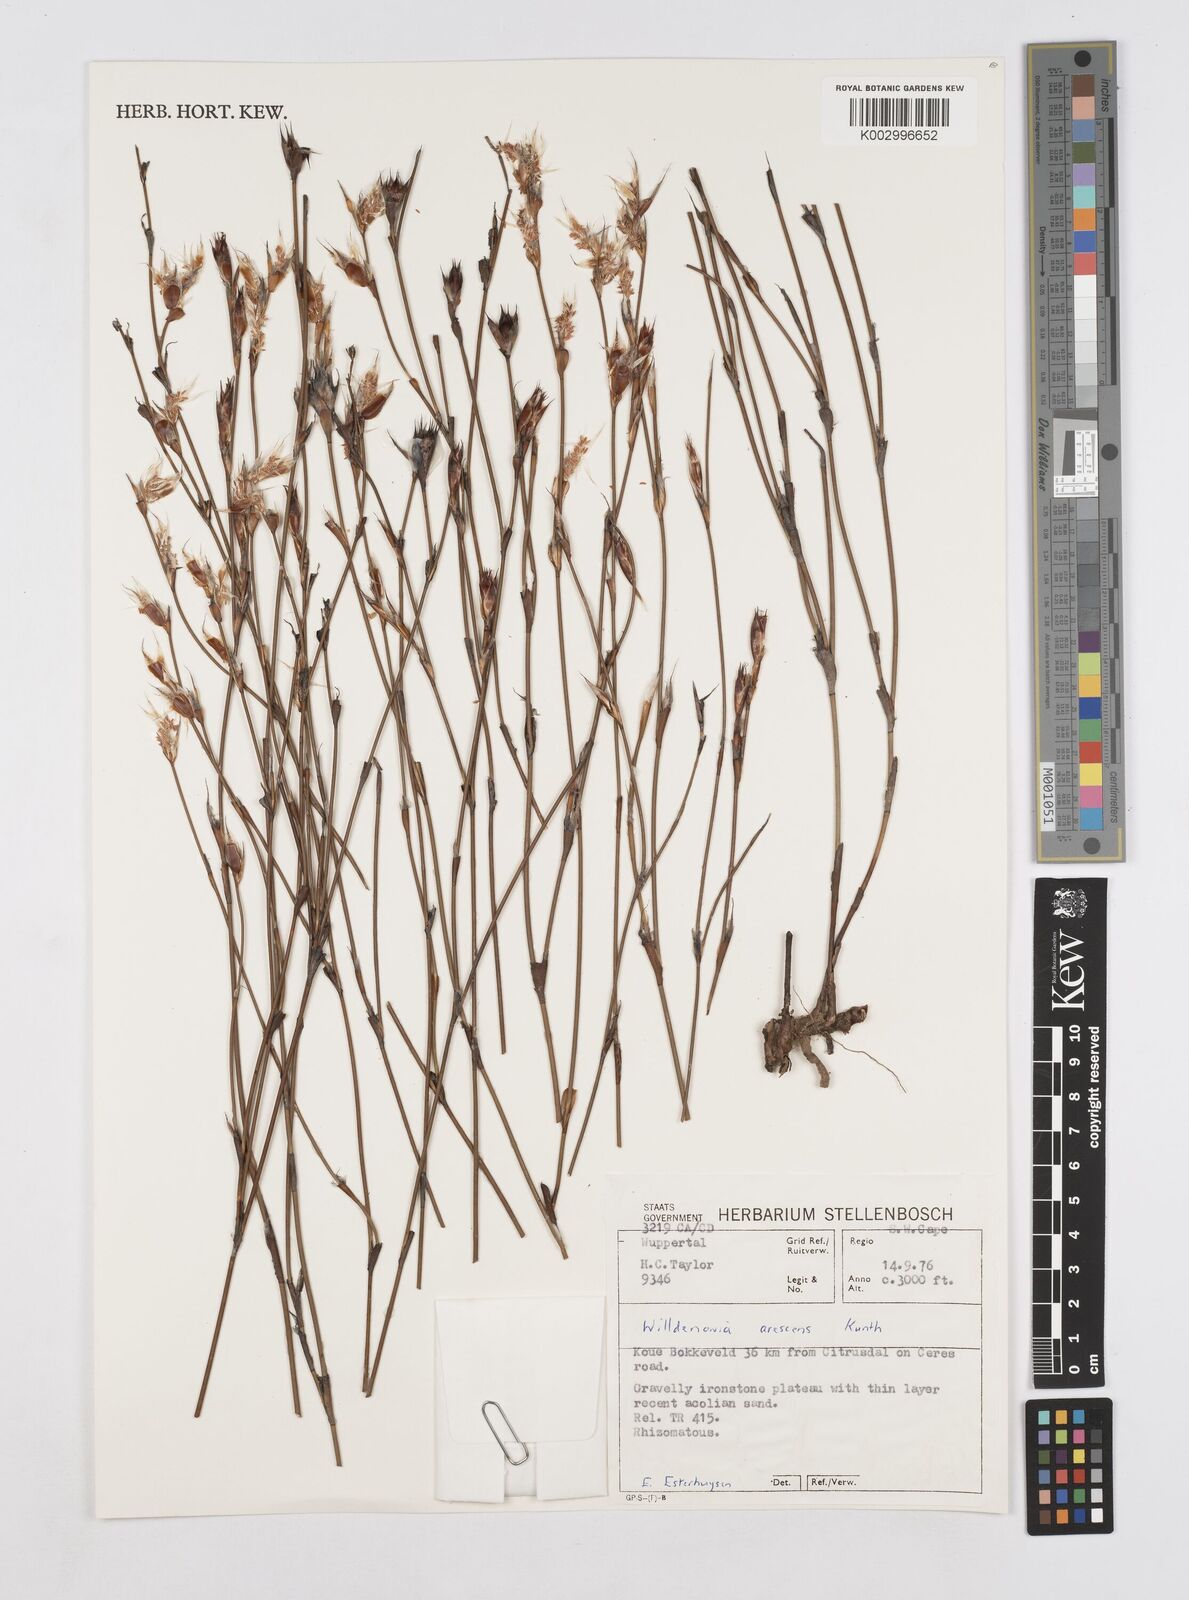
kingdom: Plantae
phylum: Tracheophyta
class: Liliopsida
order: Poales
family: Restionaceae
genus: Willdenowia
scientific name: Willdenowia arescens
